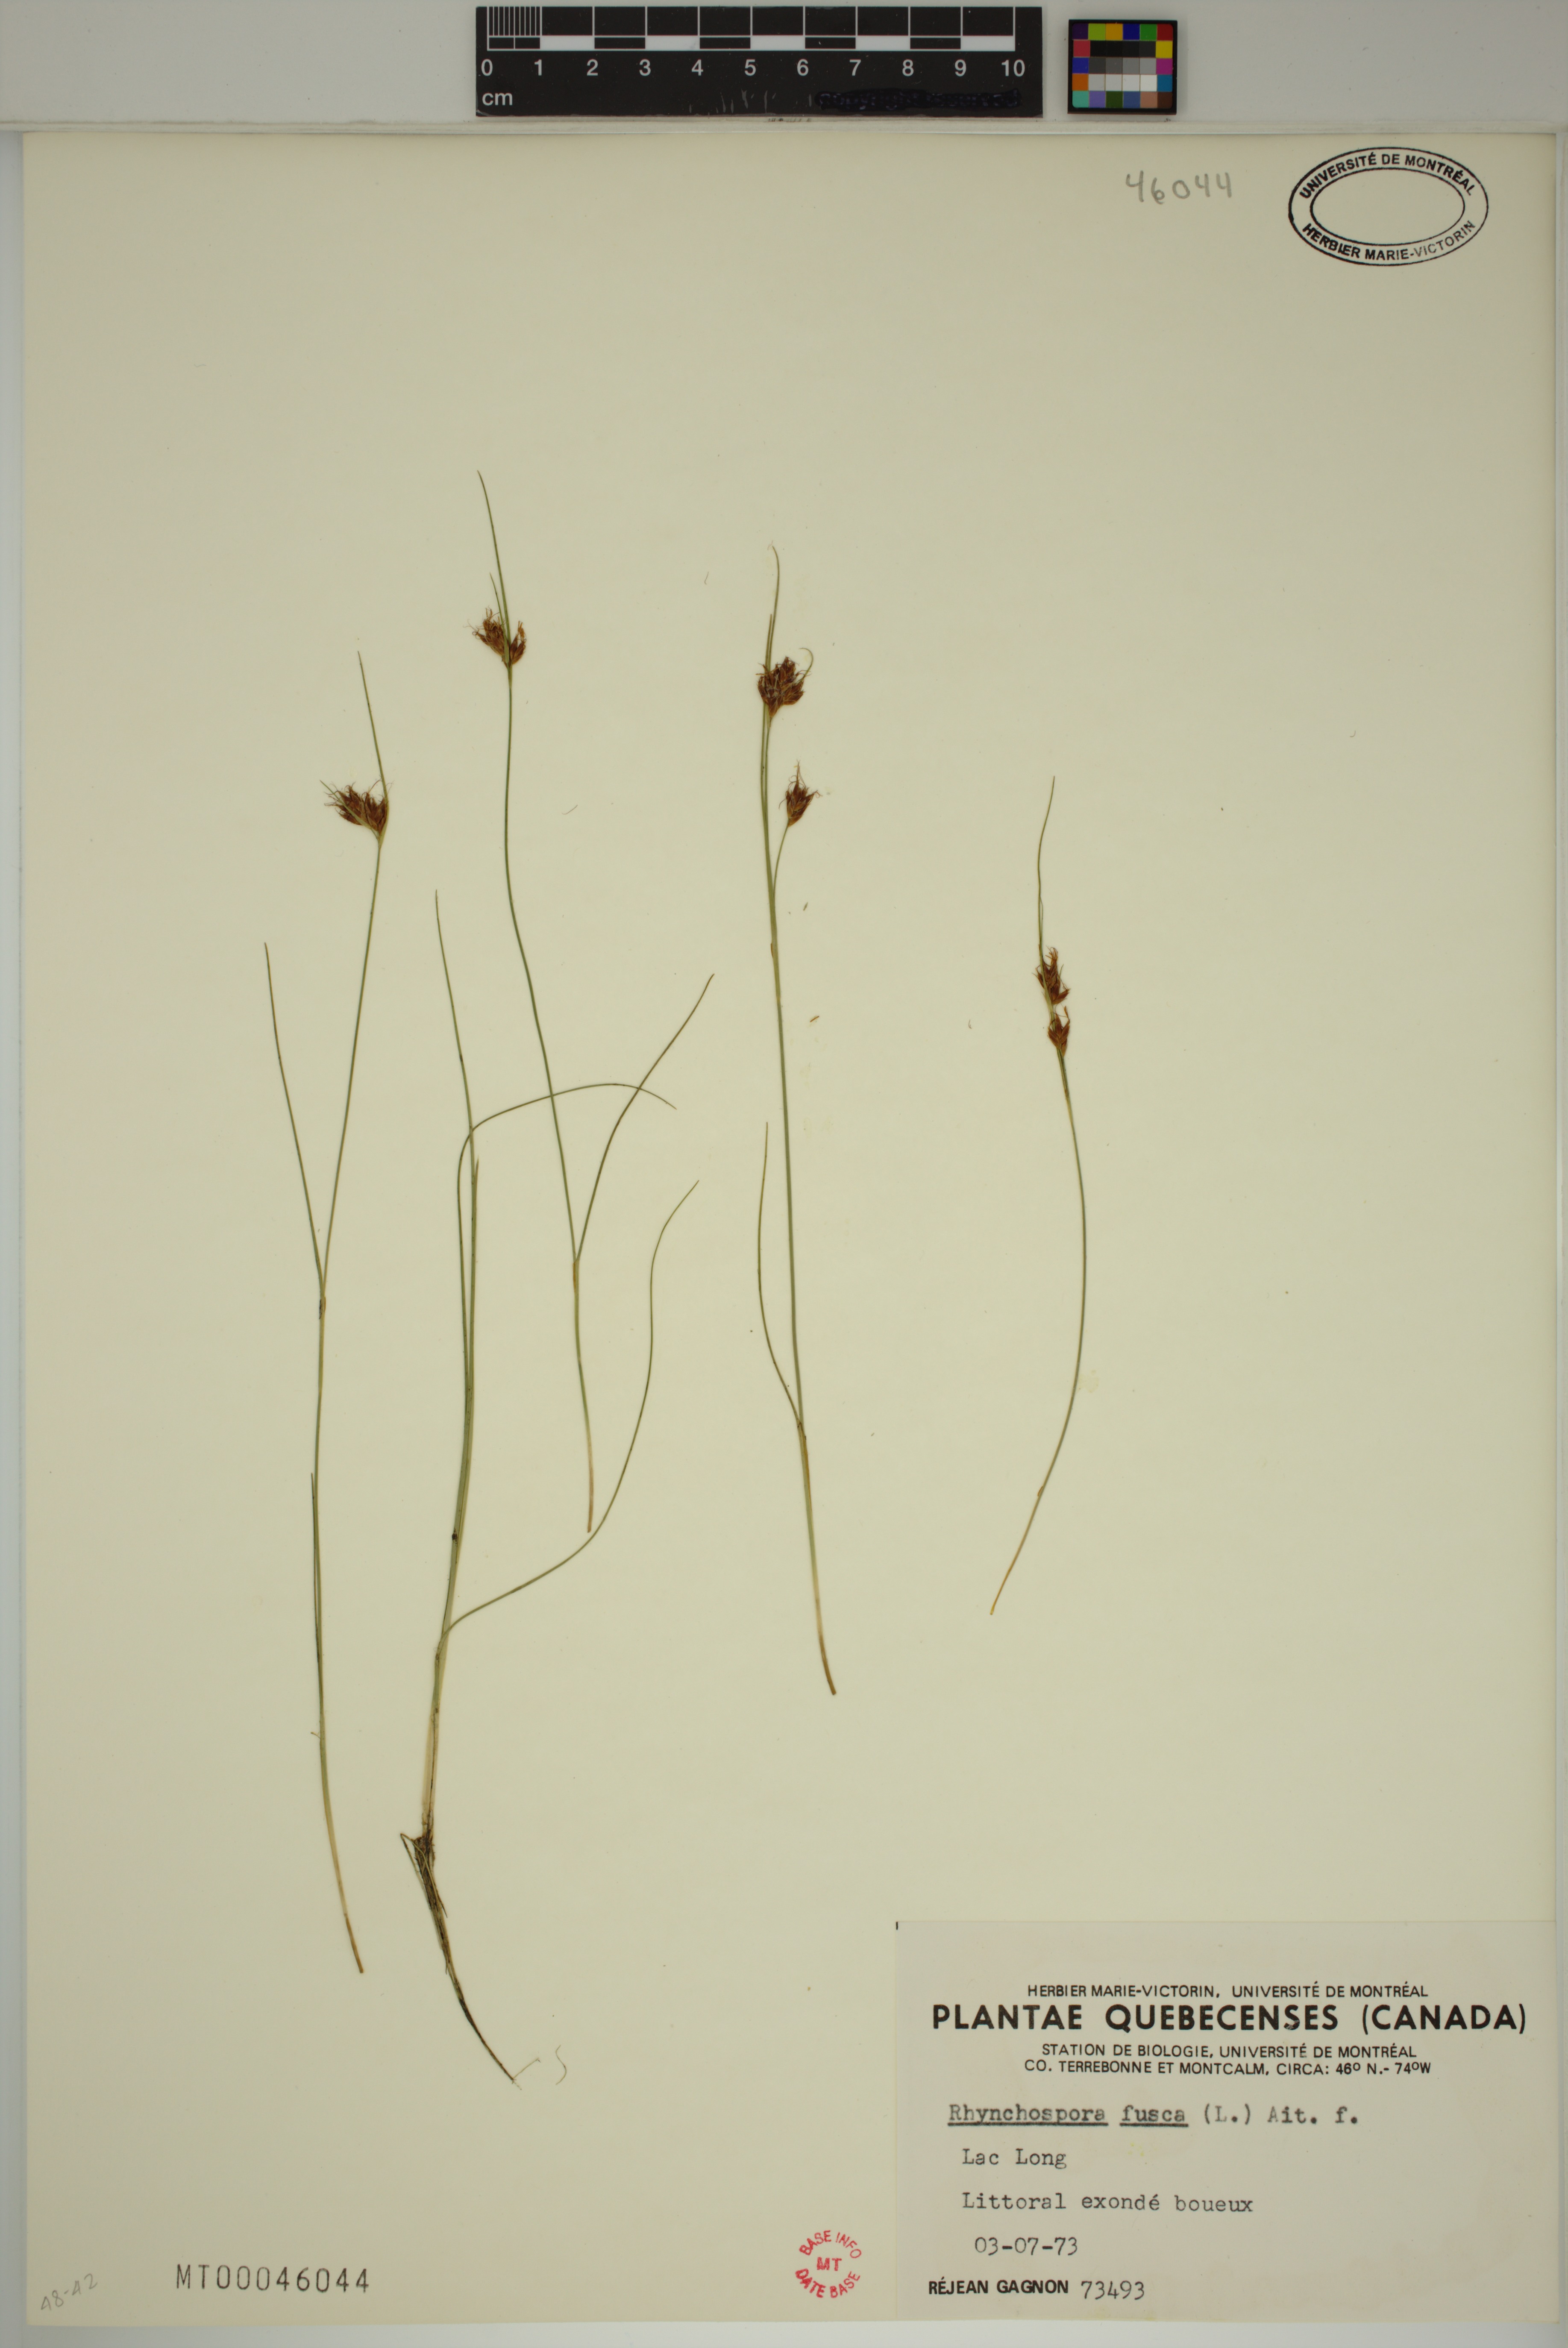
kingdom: Plantae
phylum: Tracheophyta
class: Liliopsida
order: Poales
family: Cyperaceae
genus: Rhynchospora
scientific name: Rhynchospora fusca
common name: Brown beak-sedge
